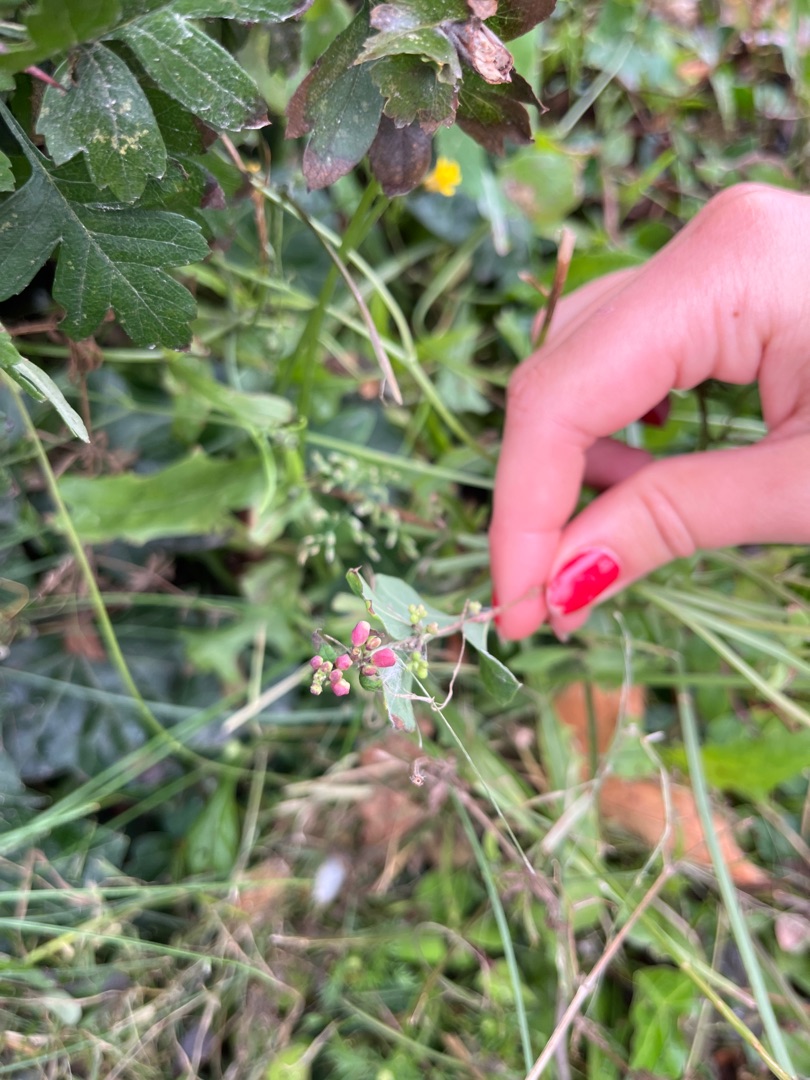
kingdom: Plantae
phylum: Tracheophyta
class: Magnoliopsida
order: Dipsacales
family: Caprifoliaceae
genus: Symphoricarpos
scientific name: Symphoricarpos chenaultii
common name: Rød snebær
